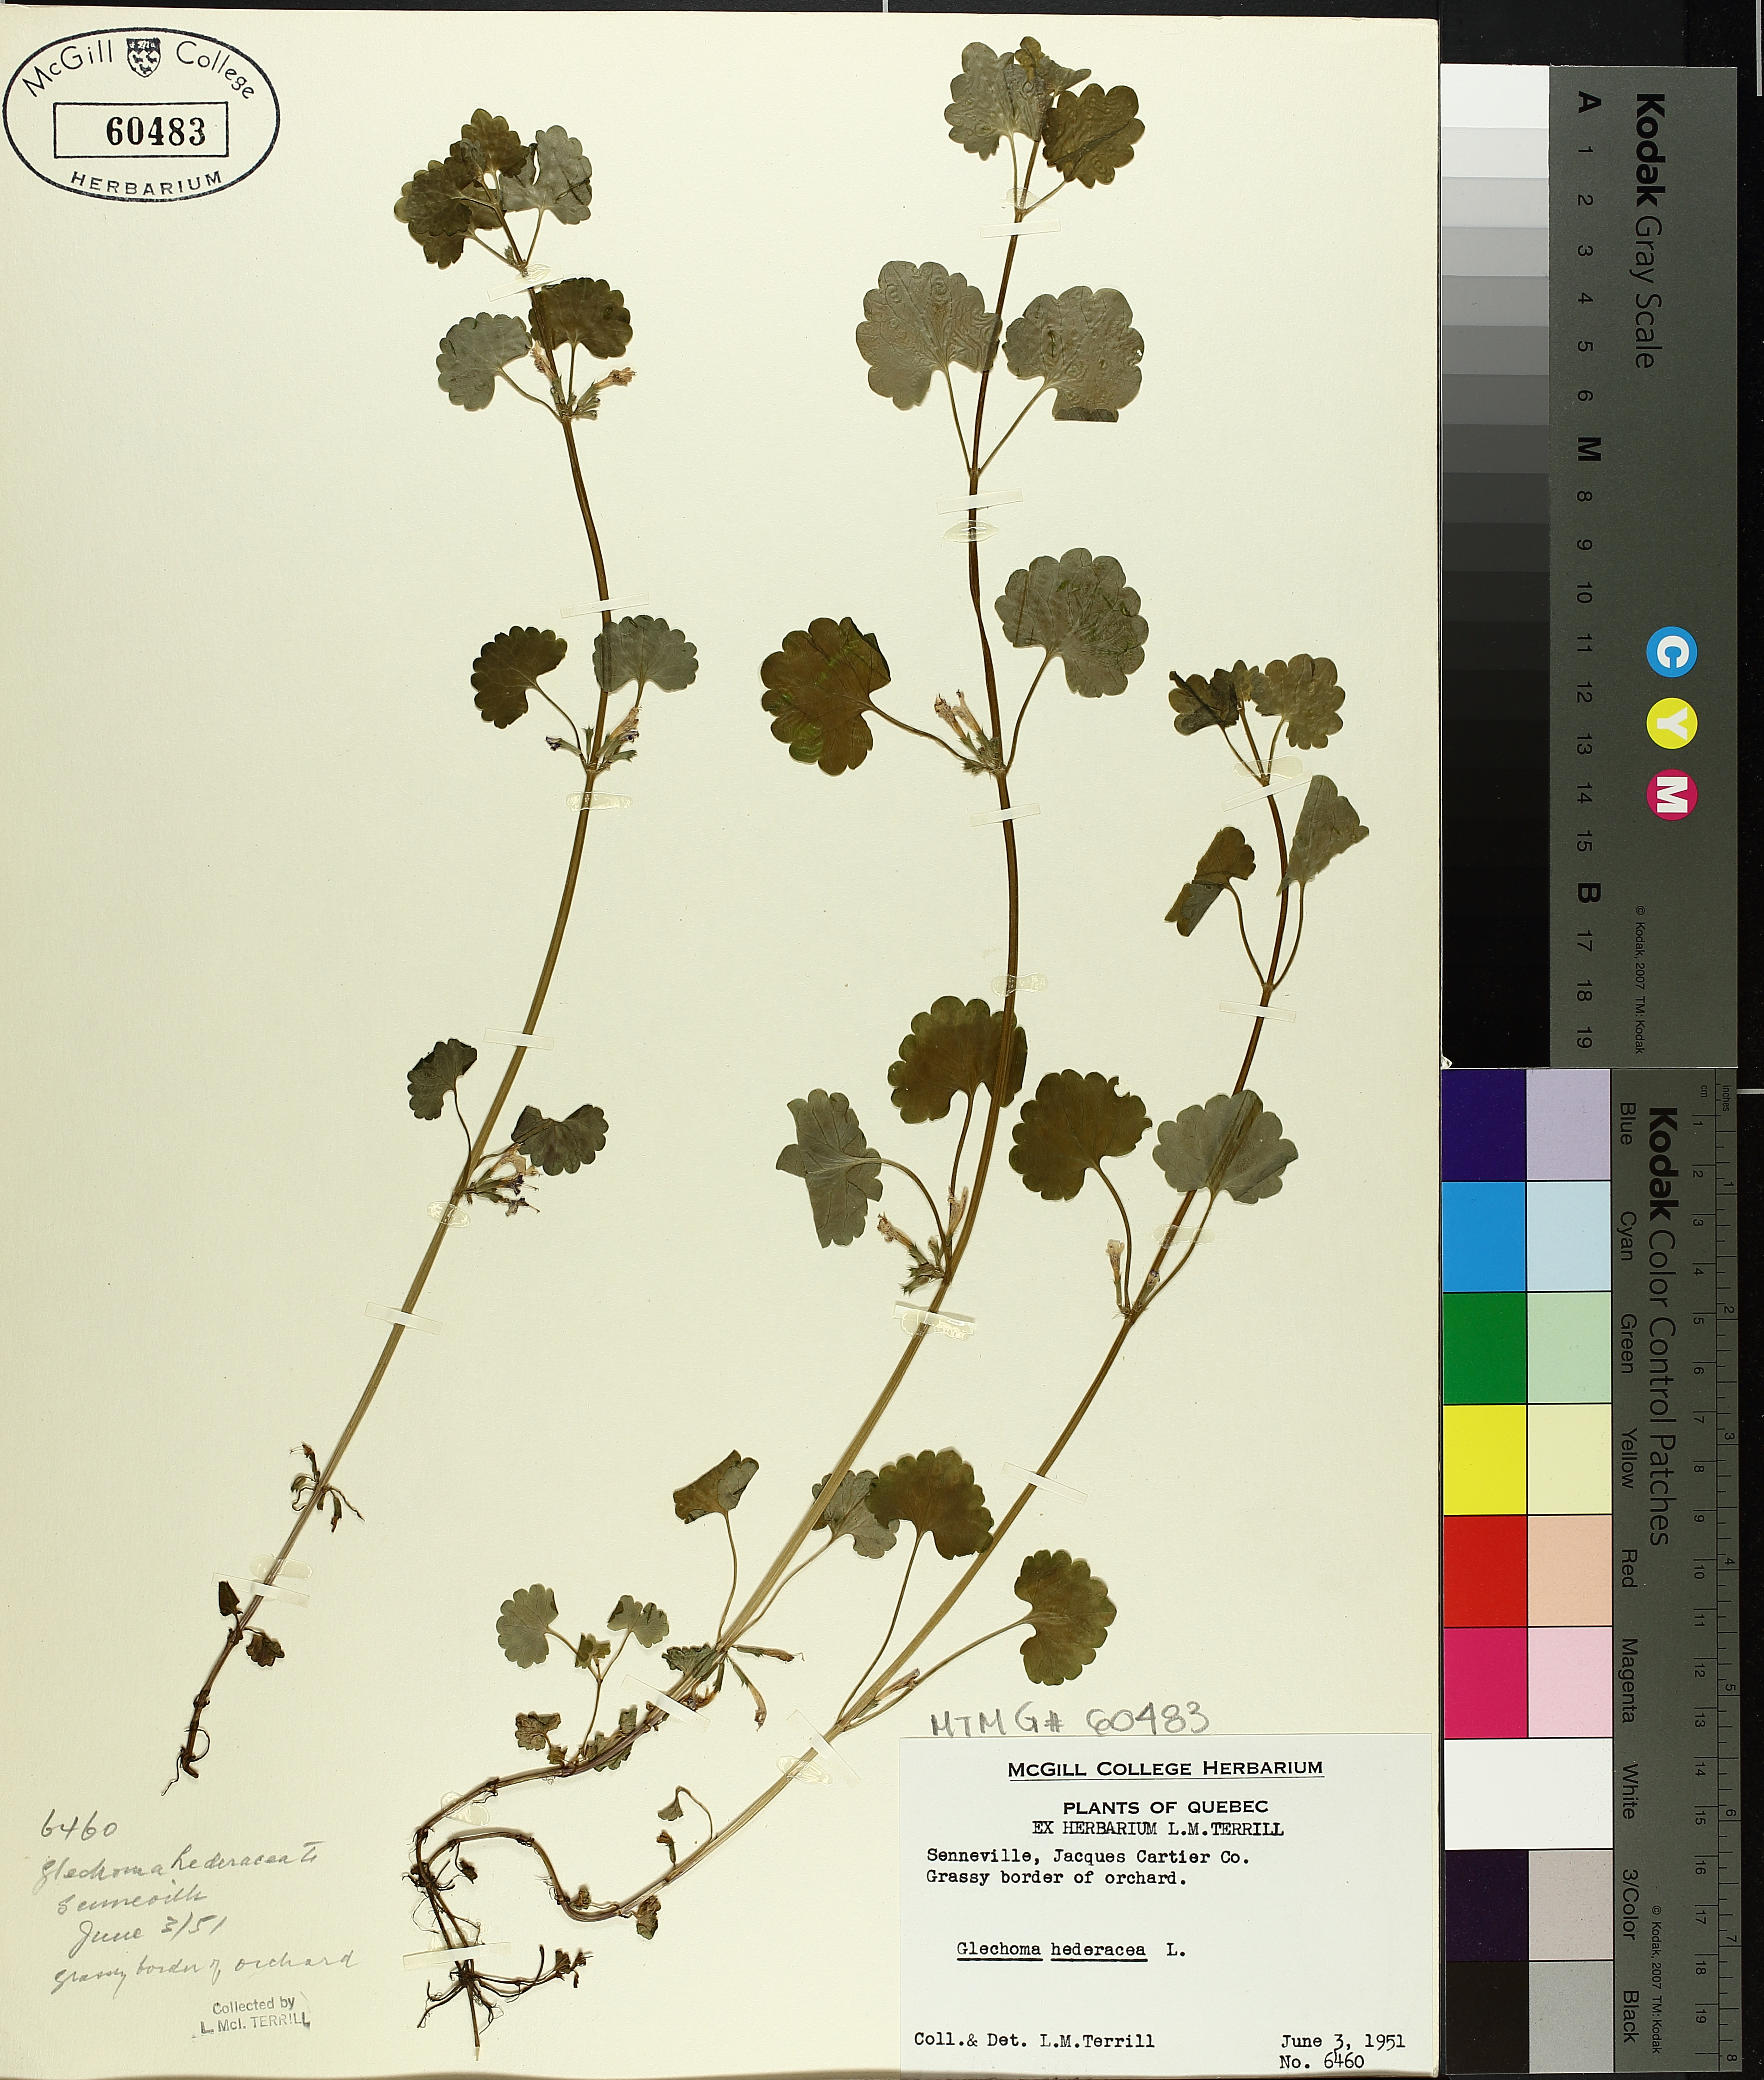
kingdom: Plantae
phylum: Tracheophyta
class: Magnoliopsida
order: Lamiales
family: Lamiaceae
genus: Glechoma
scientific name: Glechoma hederacea
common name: Ground ivy
